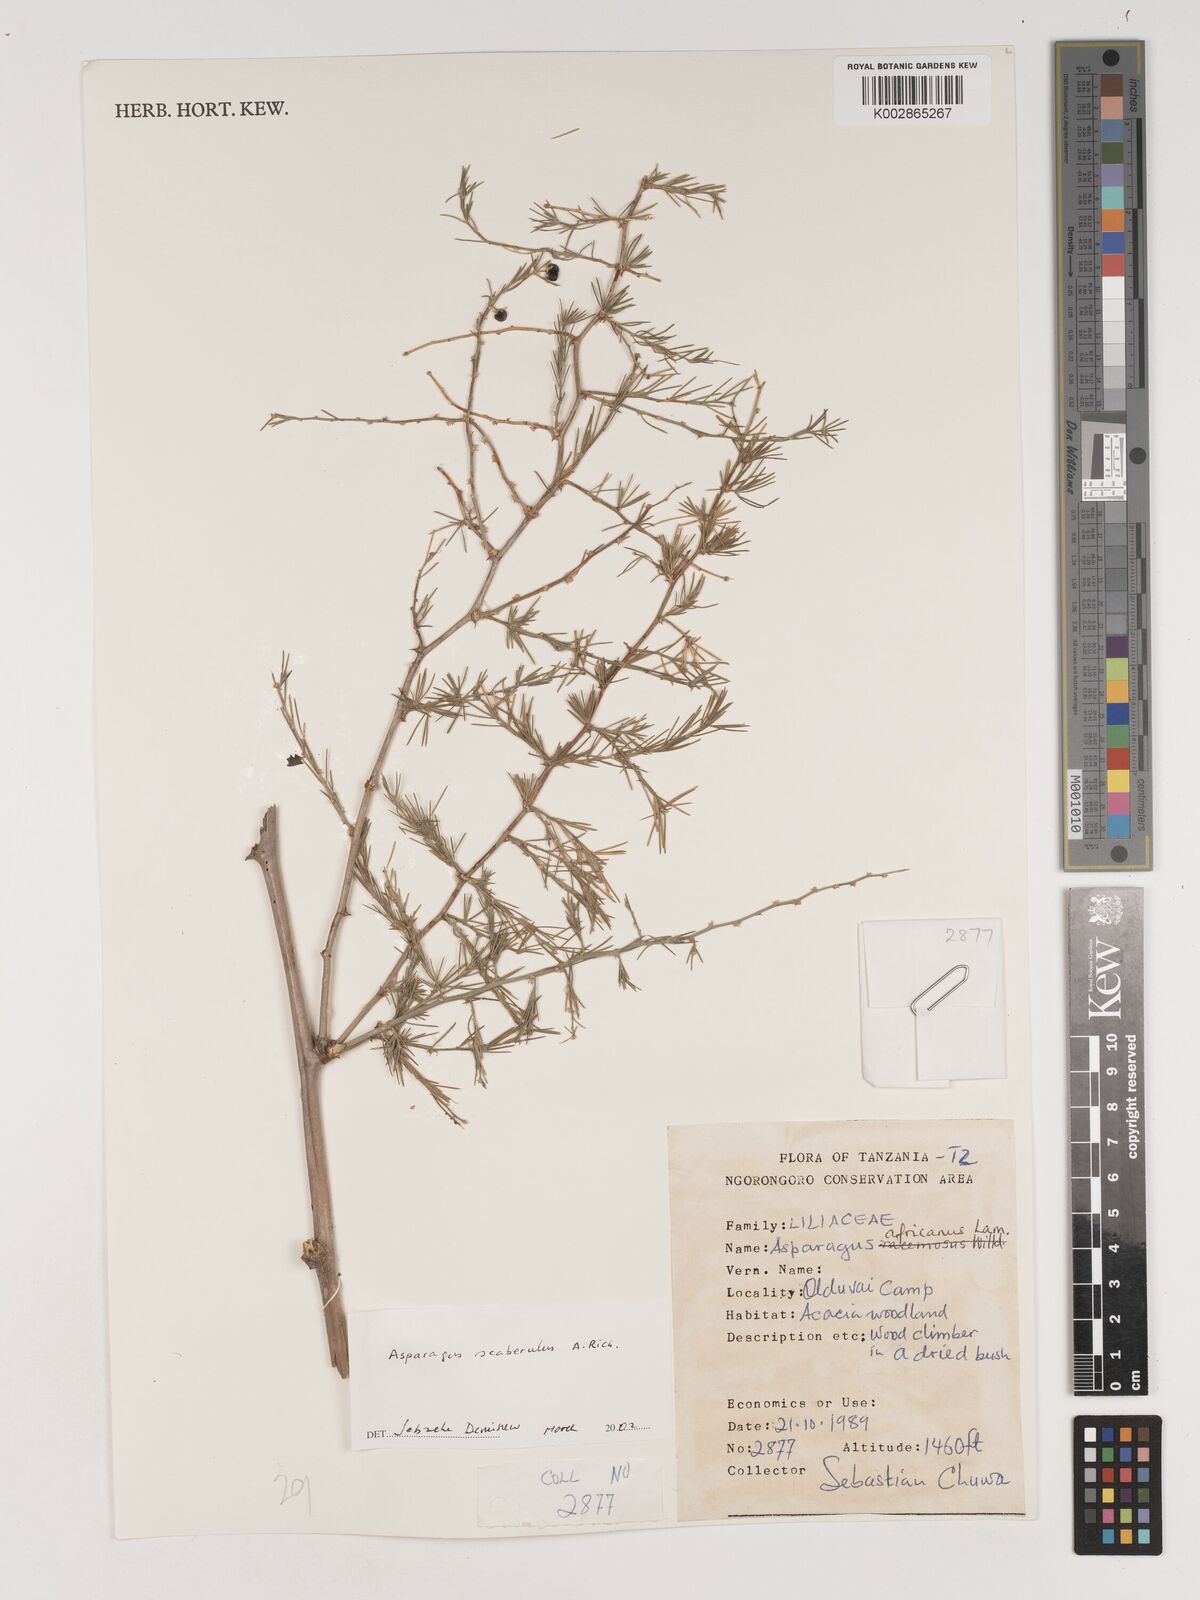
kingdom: Plantae
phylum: Tracheophyta
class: Liliopsida
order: Asparagales
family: Asparagaceae
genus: Asparagus
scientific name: Asparagus scaberulus
